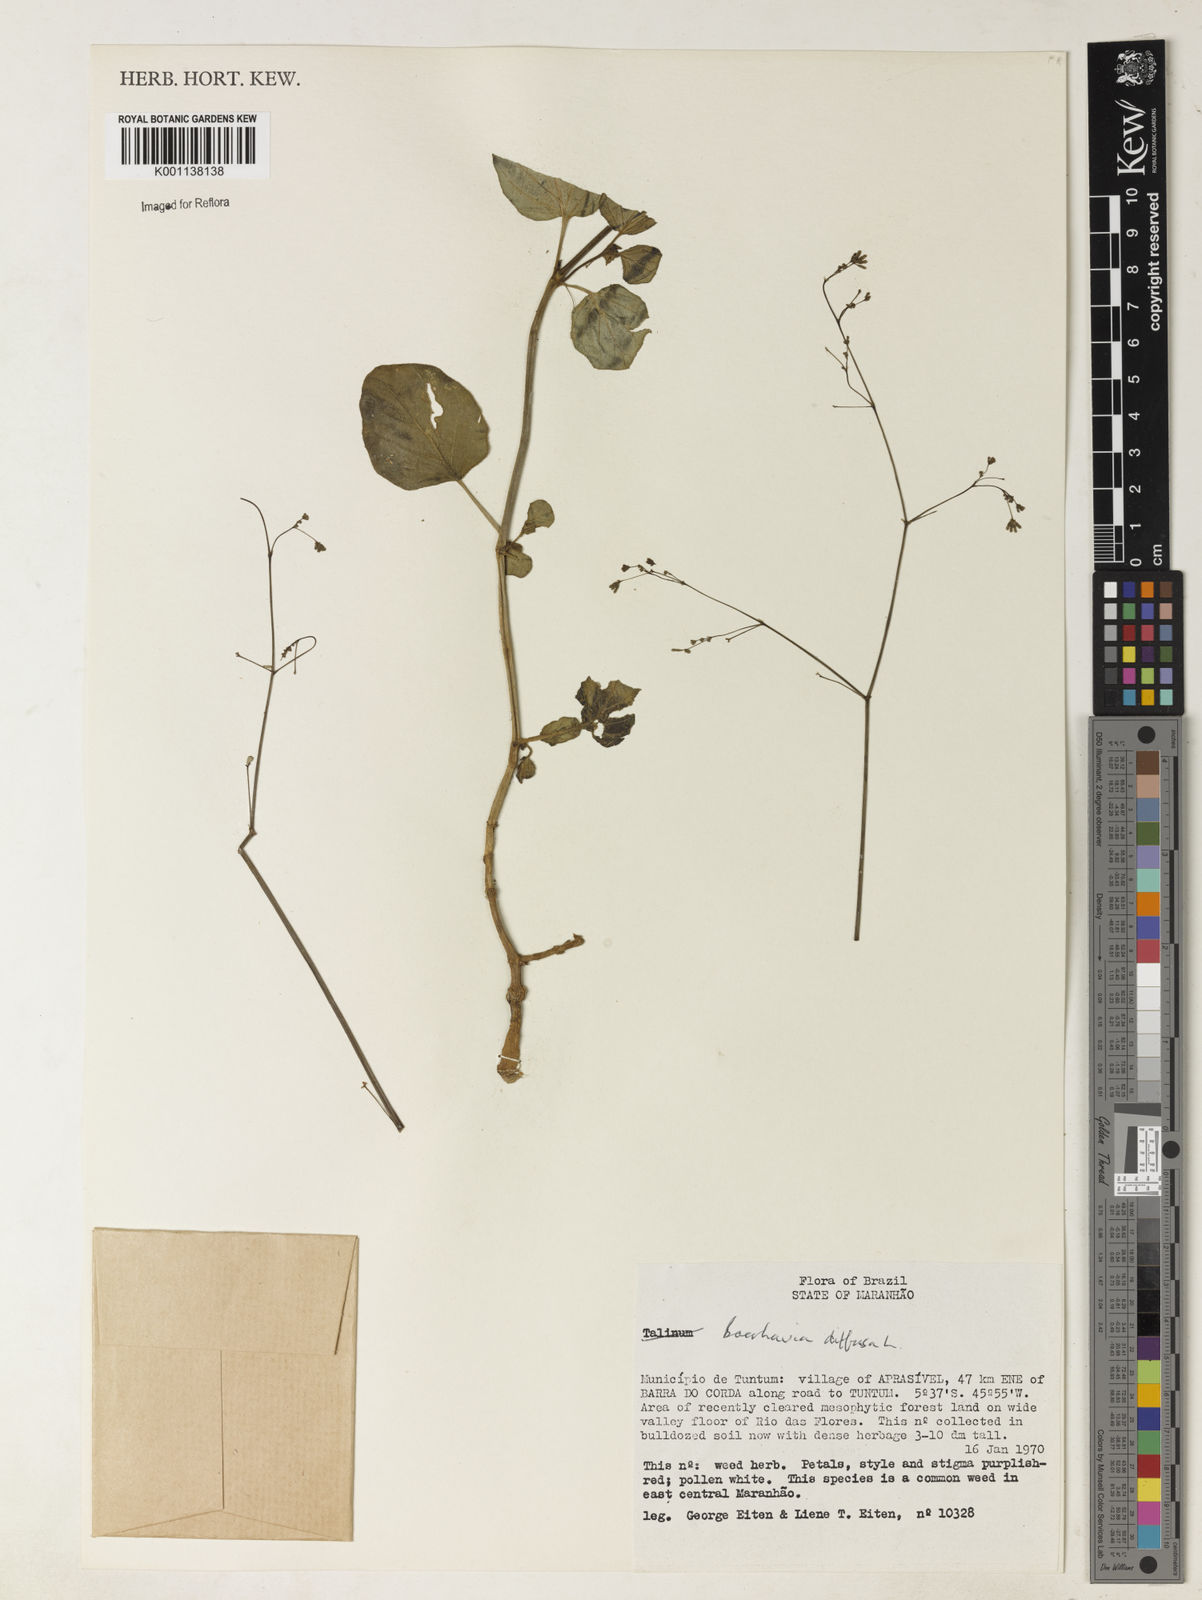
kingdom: Plantae
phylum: Tracheophyta
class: Magnoliopsida
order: Caryophyllales
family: Nyctaginaceae
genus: Boerhavia
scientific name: Boerhavia diffusa
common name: Red spiderling
